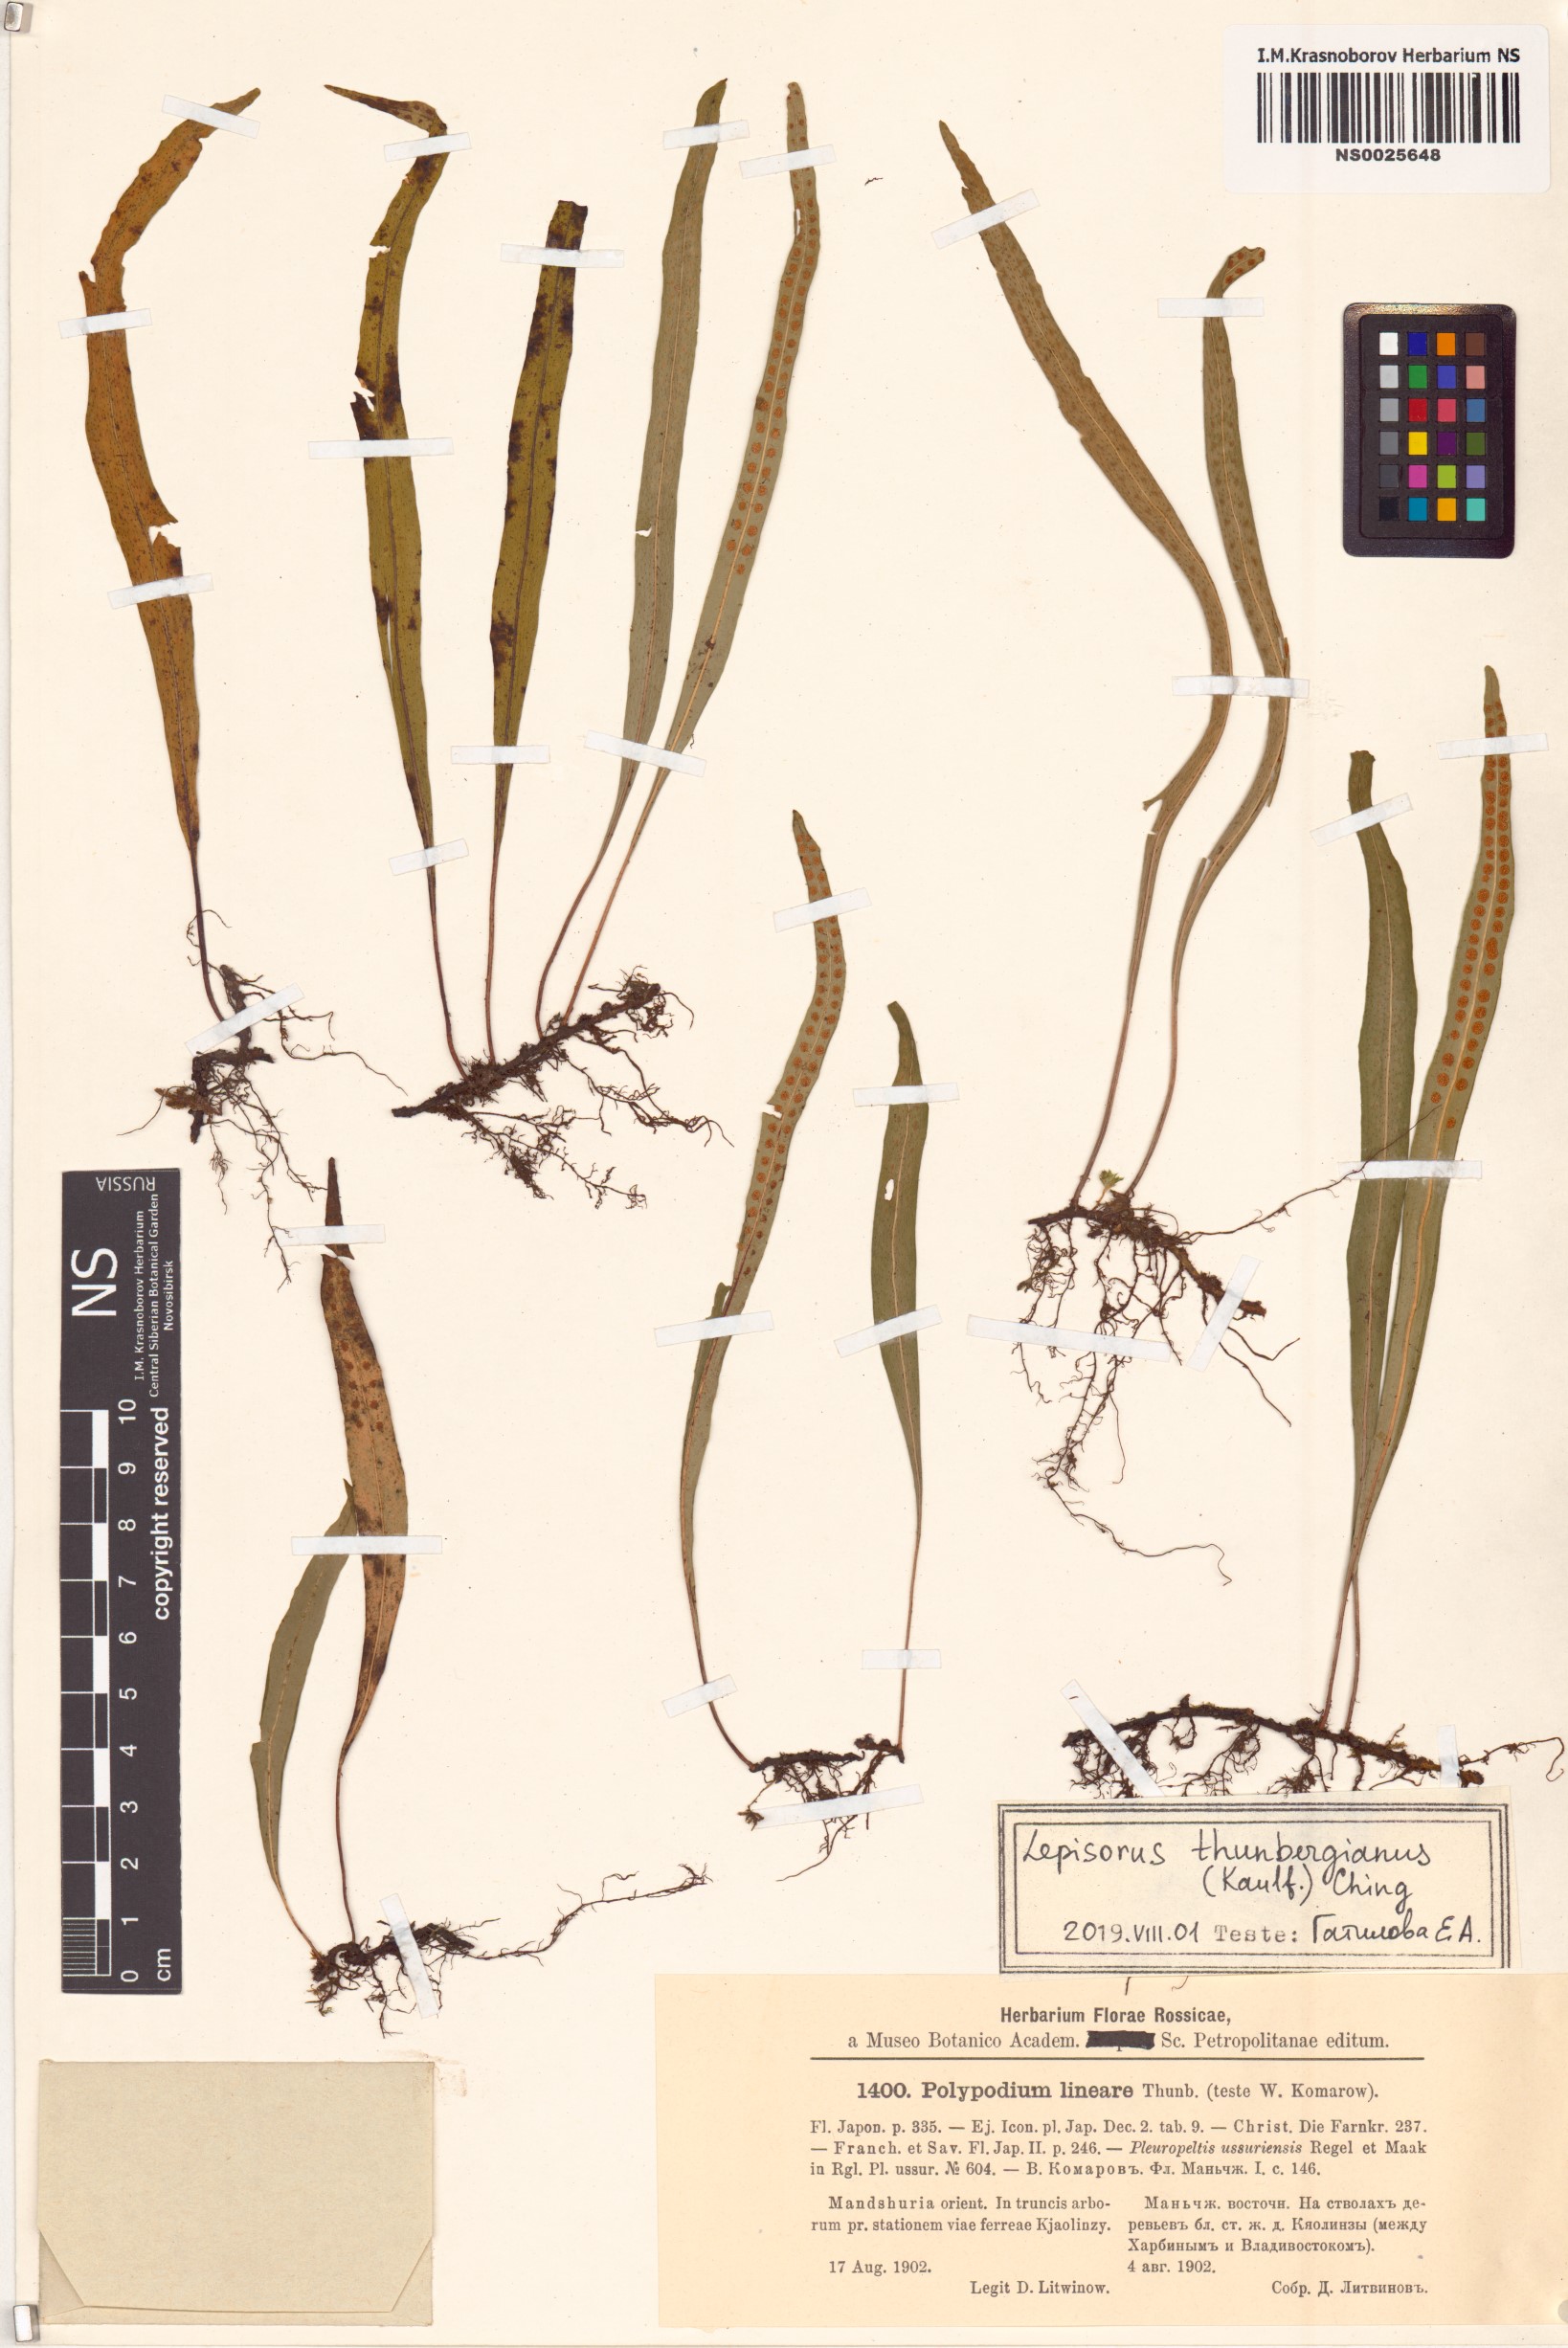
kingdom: Plantae
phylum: Tracheophyta
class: Polypodiopsida
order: Polypodiales
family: Polypodiaceae
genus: Lepisorus
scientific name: Lepisorus thunbergianus
